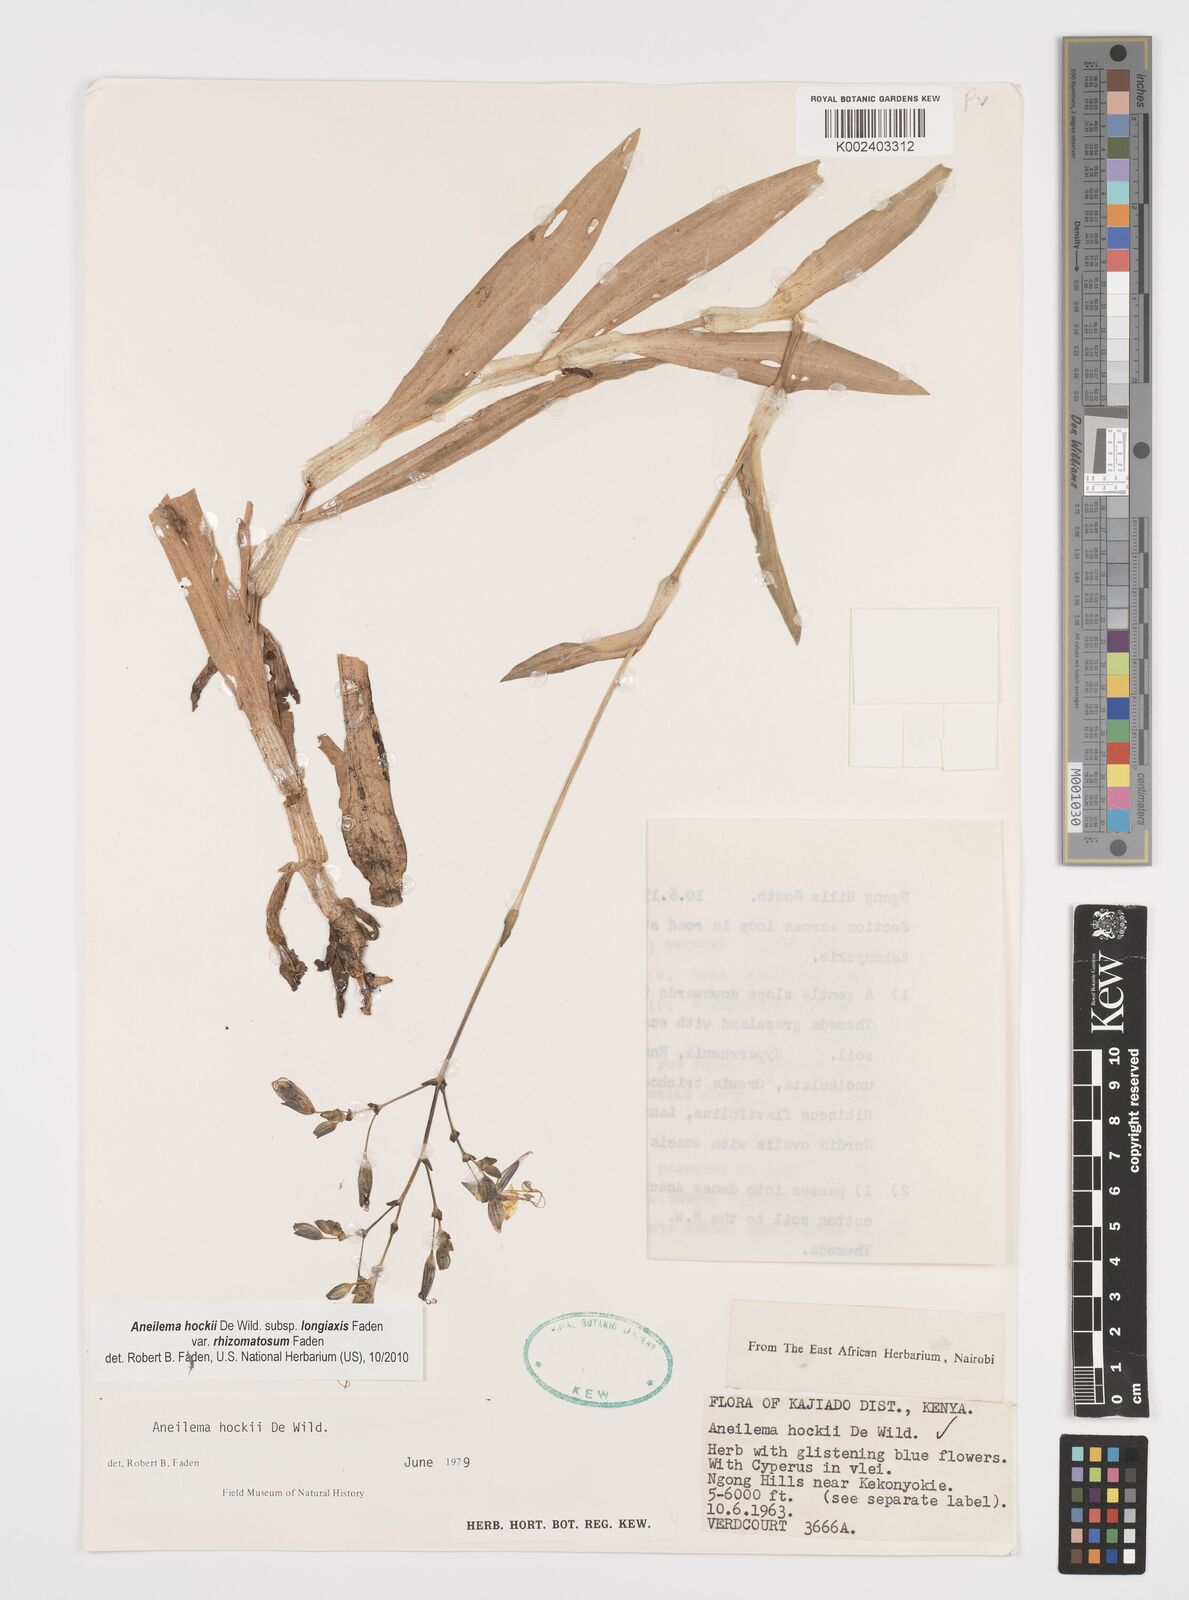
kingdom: Plantae
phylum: Tracheophyta
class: Liliopsida
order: Commelinales
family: Commelinaceae
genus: Aneilema
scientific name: Aneilema hockii
